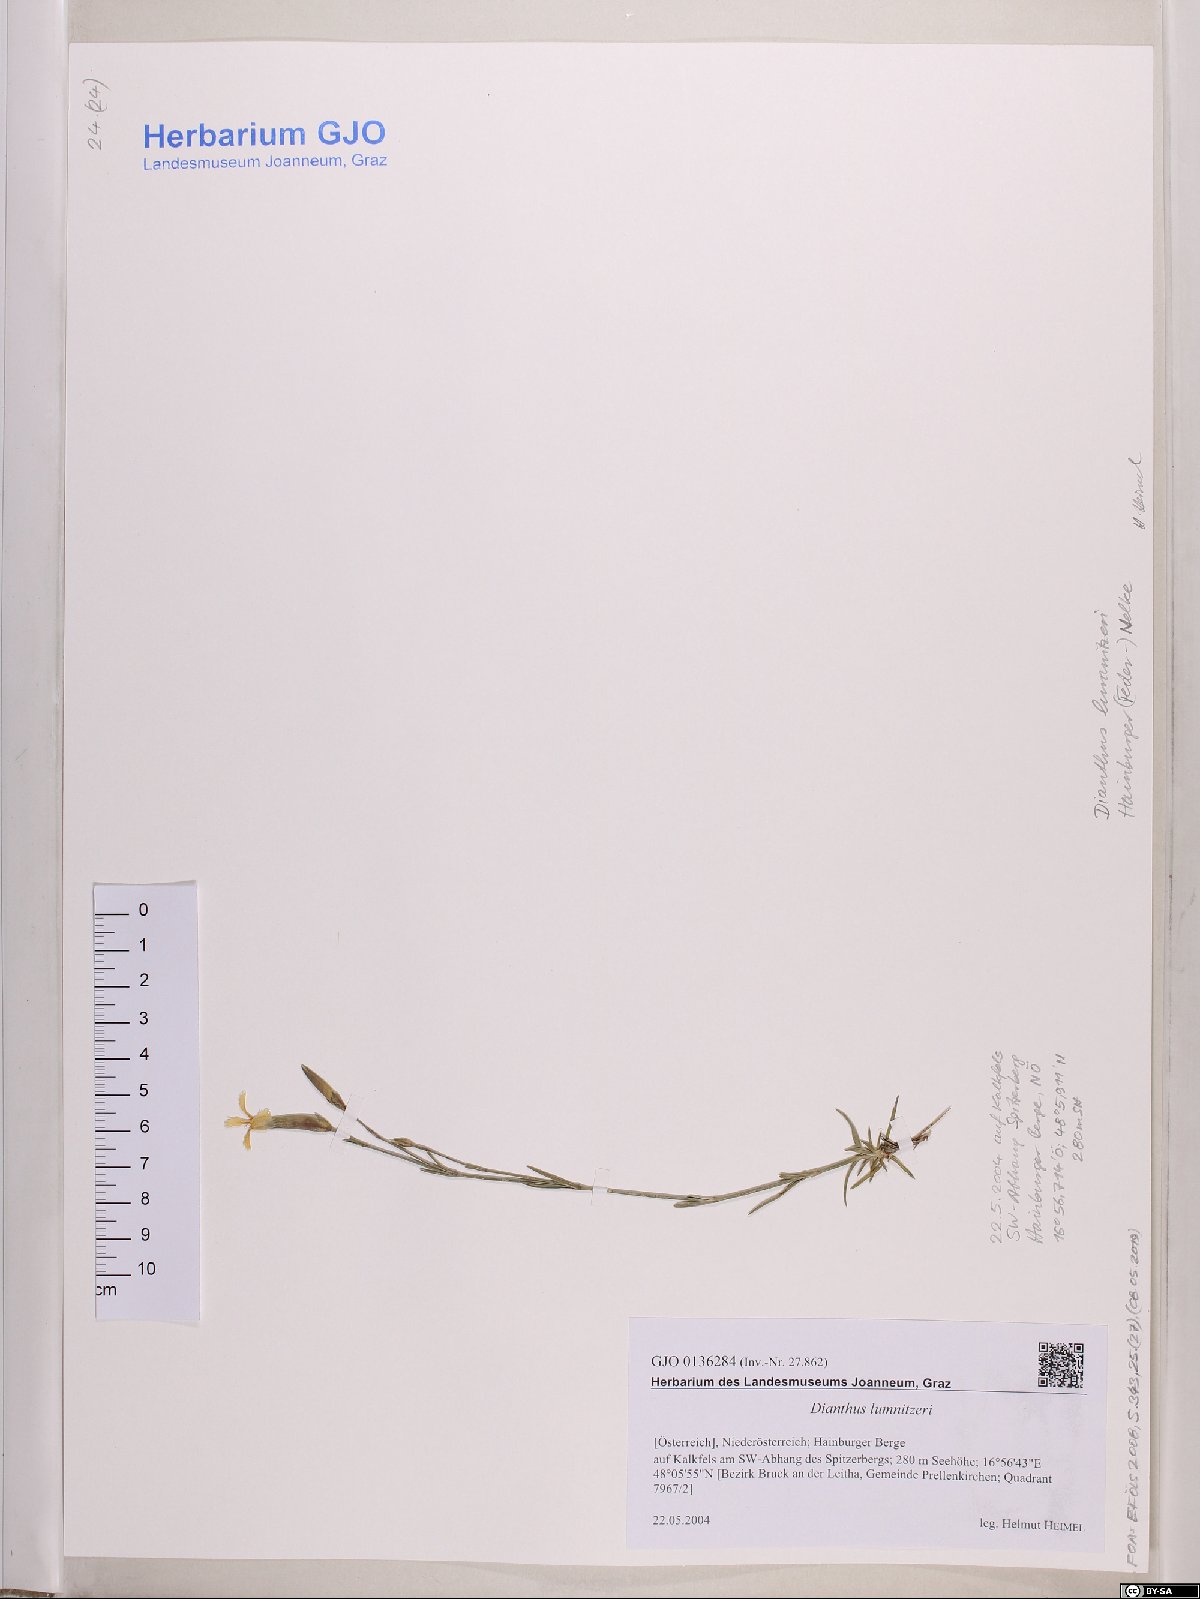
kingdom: Plantae
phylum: Tracheophyta
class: Magnoliopsida
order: Caryophyllales
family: Caryophyllaceae
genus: Dianthus
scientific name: Dianthus praecox
